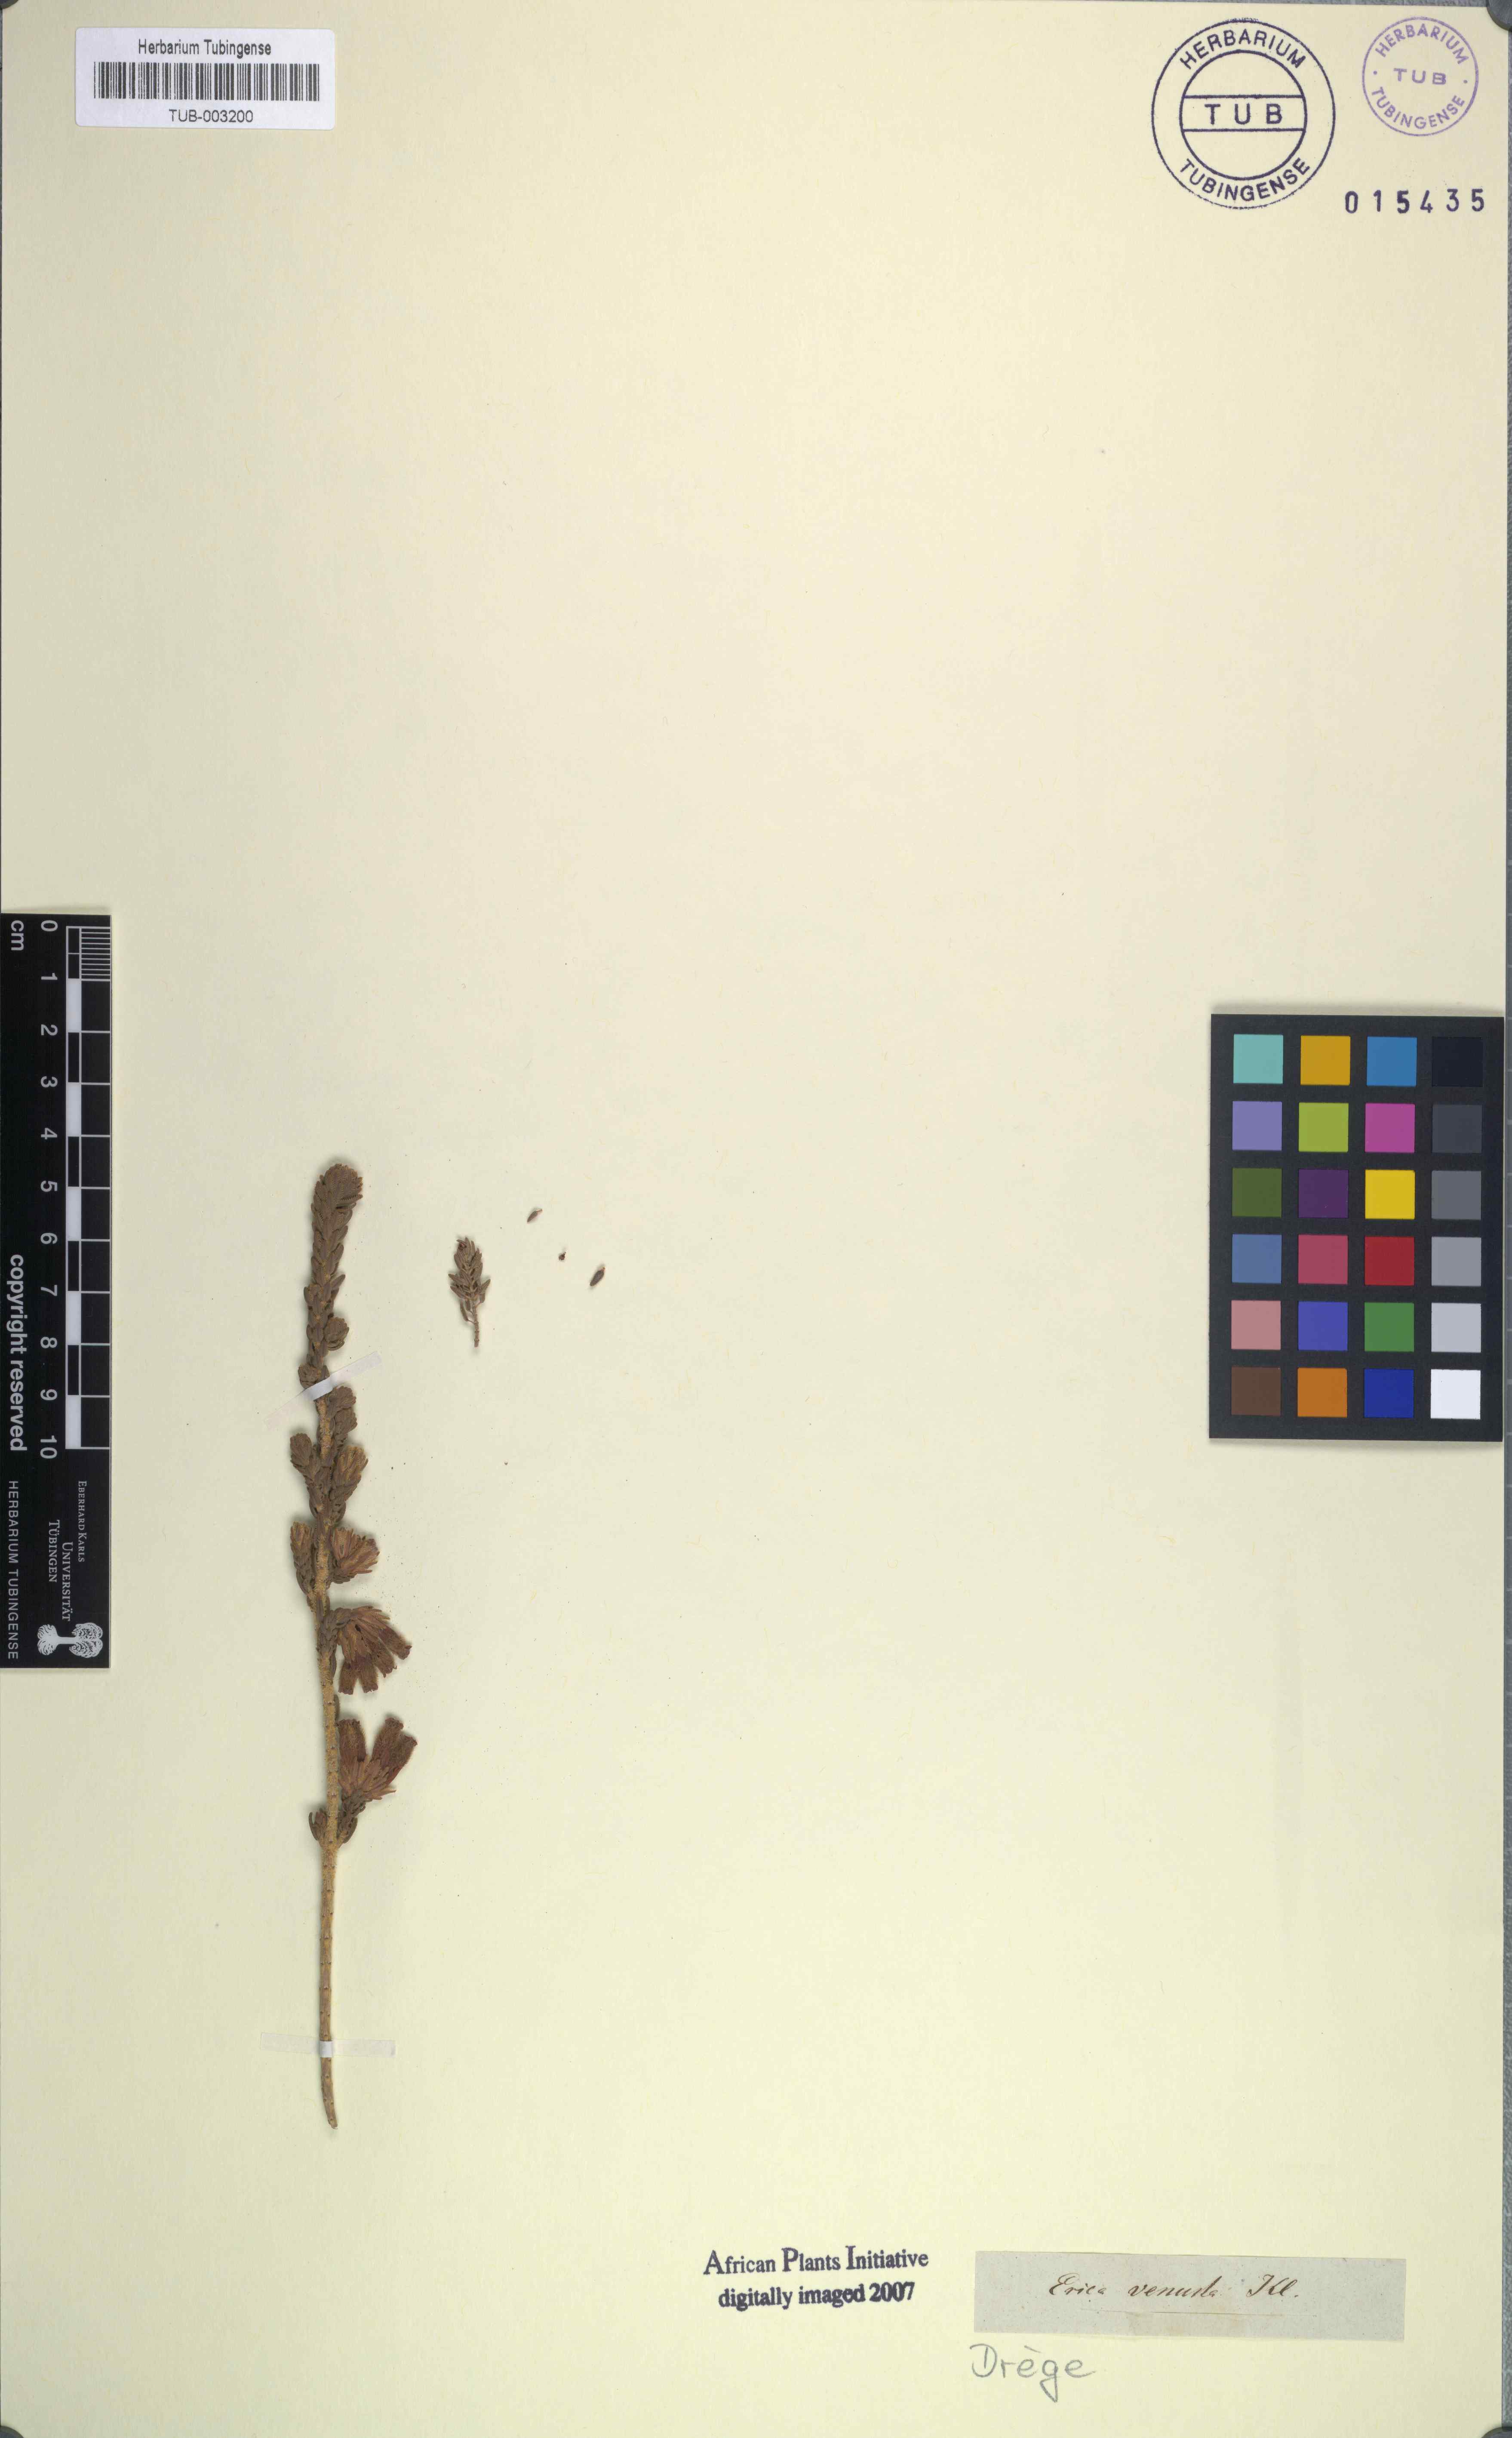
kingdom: Plantae
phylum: Tracheophyta
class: Magnoliopsida
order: Ericales
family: Ericaceae
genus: Erica
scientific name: Erica pectinifolia
